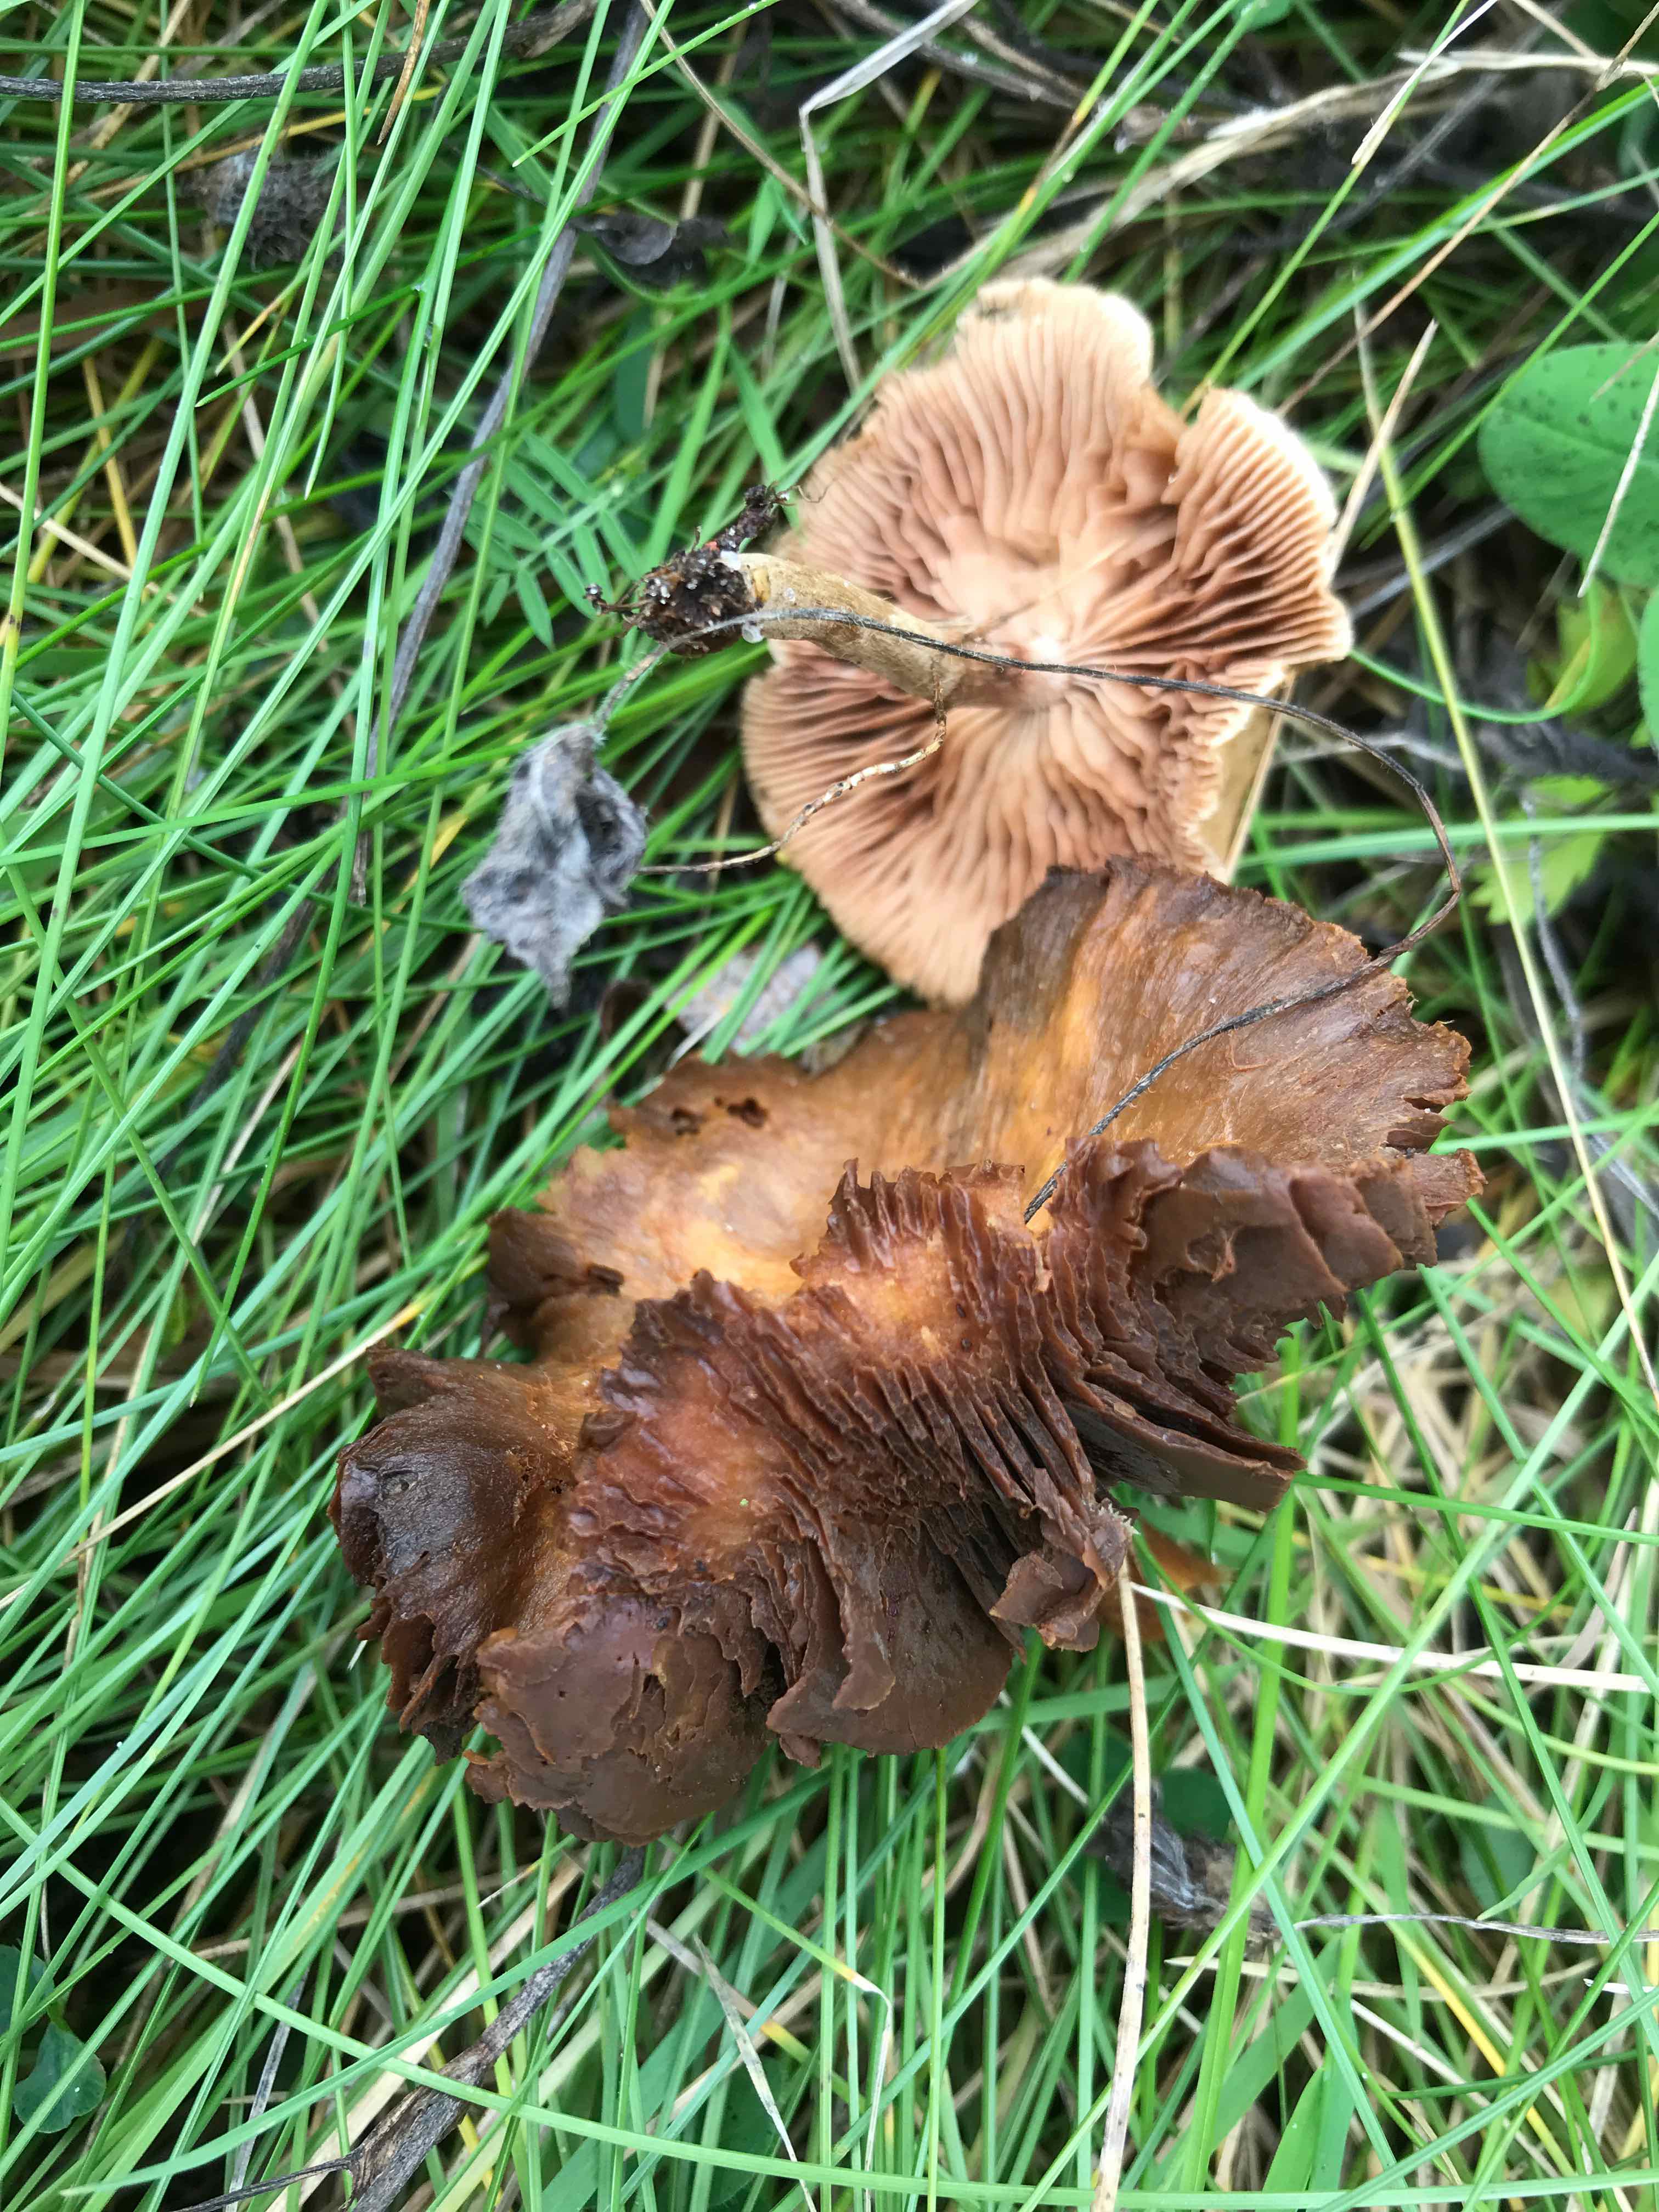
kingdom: Fungi
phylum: Basidiomycota
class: Agaricomycetes
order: Agaricales
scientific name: Agaricales
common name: champignonordenen
